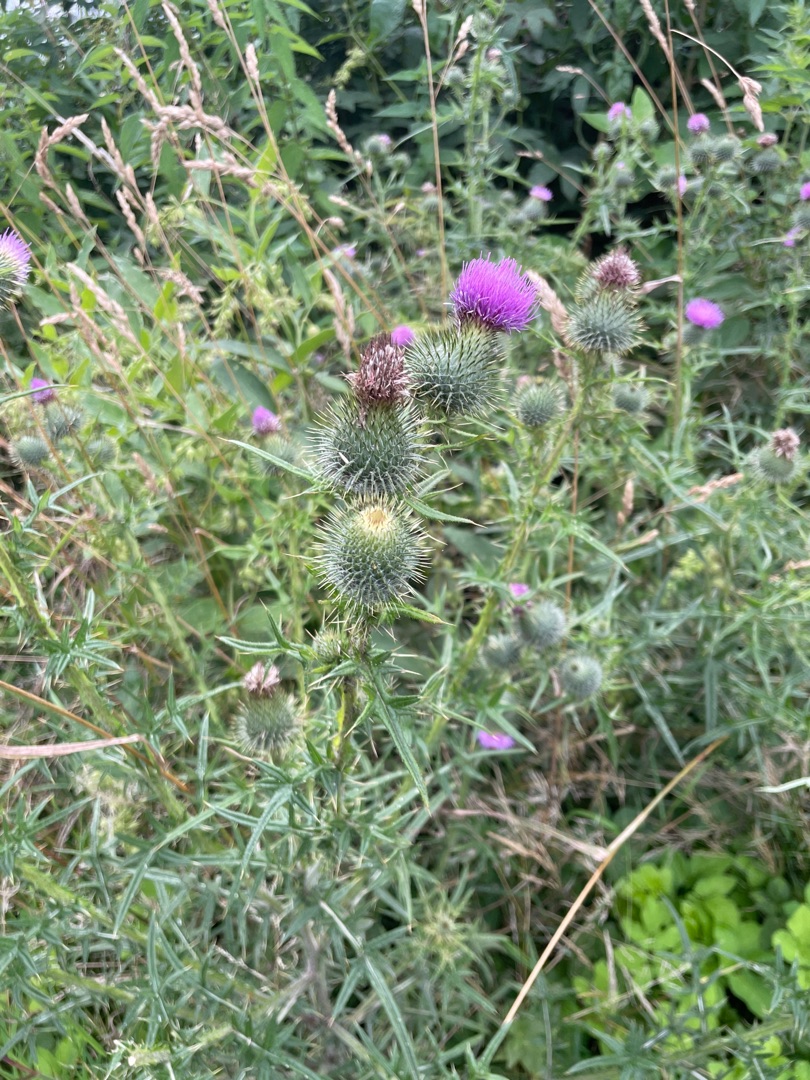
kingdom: Plantae
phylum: Tracheophyta
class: Magnoliopsida
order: Asterales
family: Asteraceae
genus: Cirsium
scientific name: Cirsium vulgare
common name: Horse-tidsel
